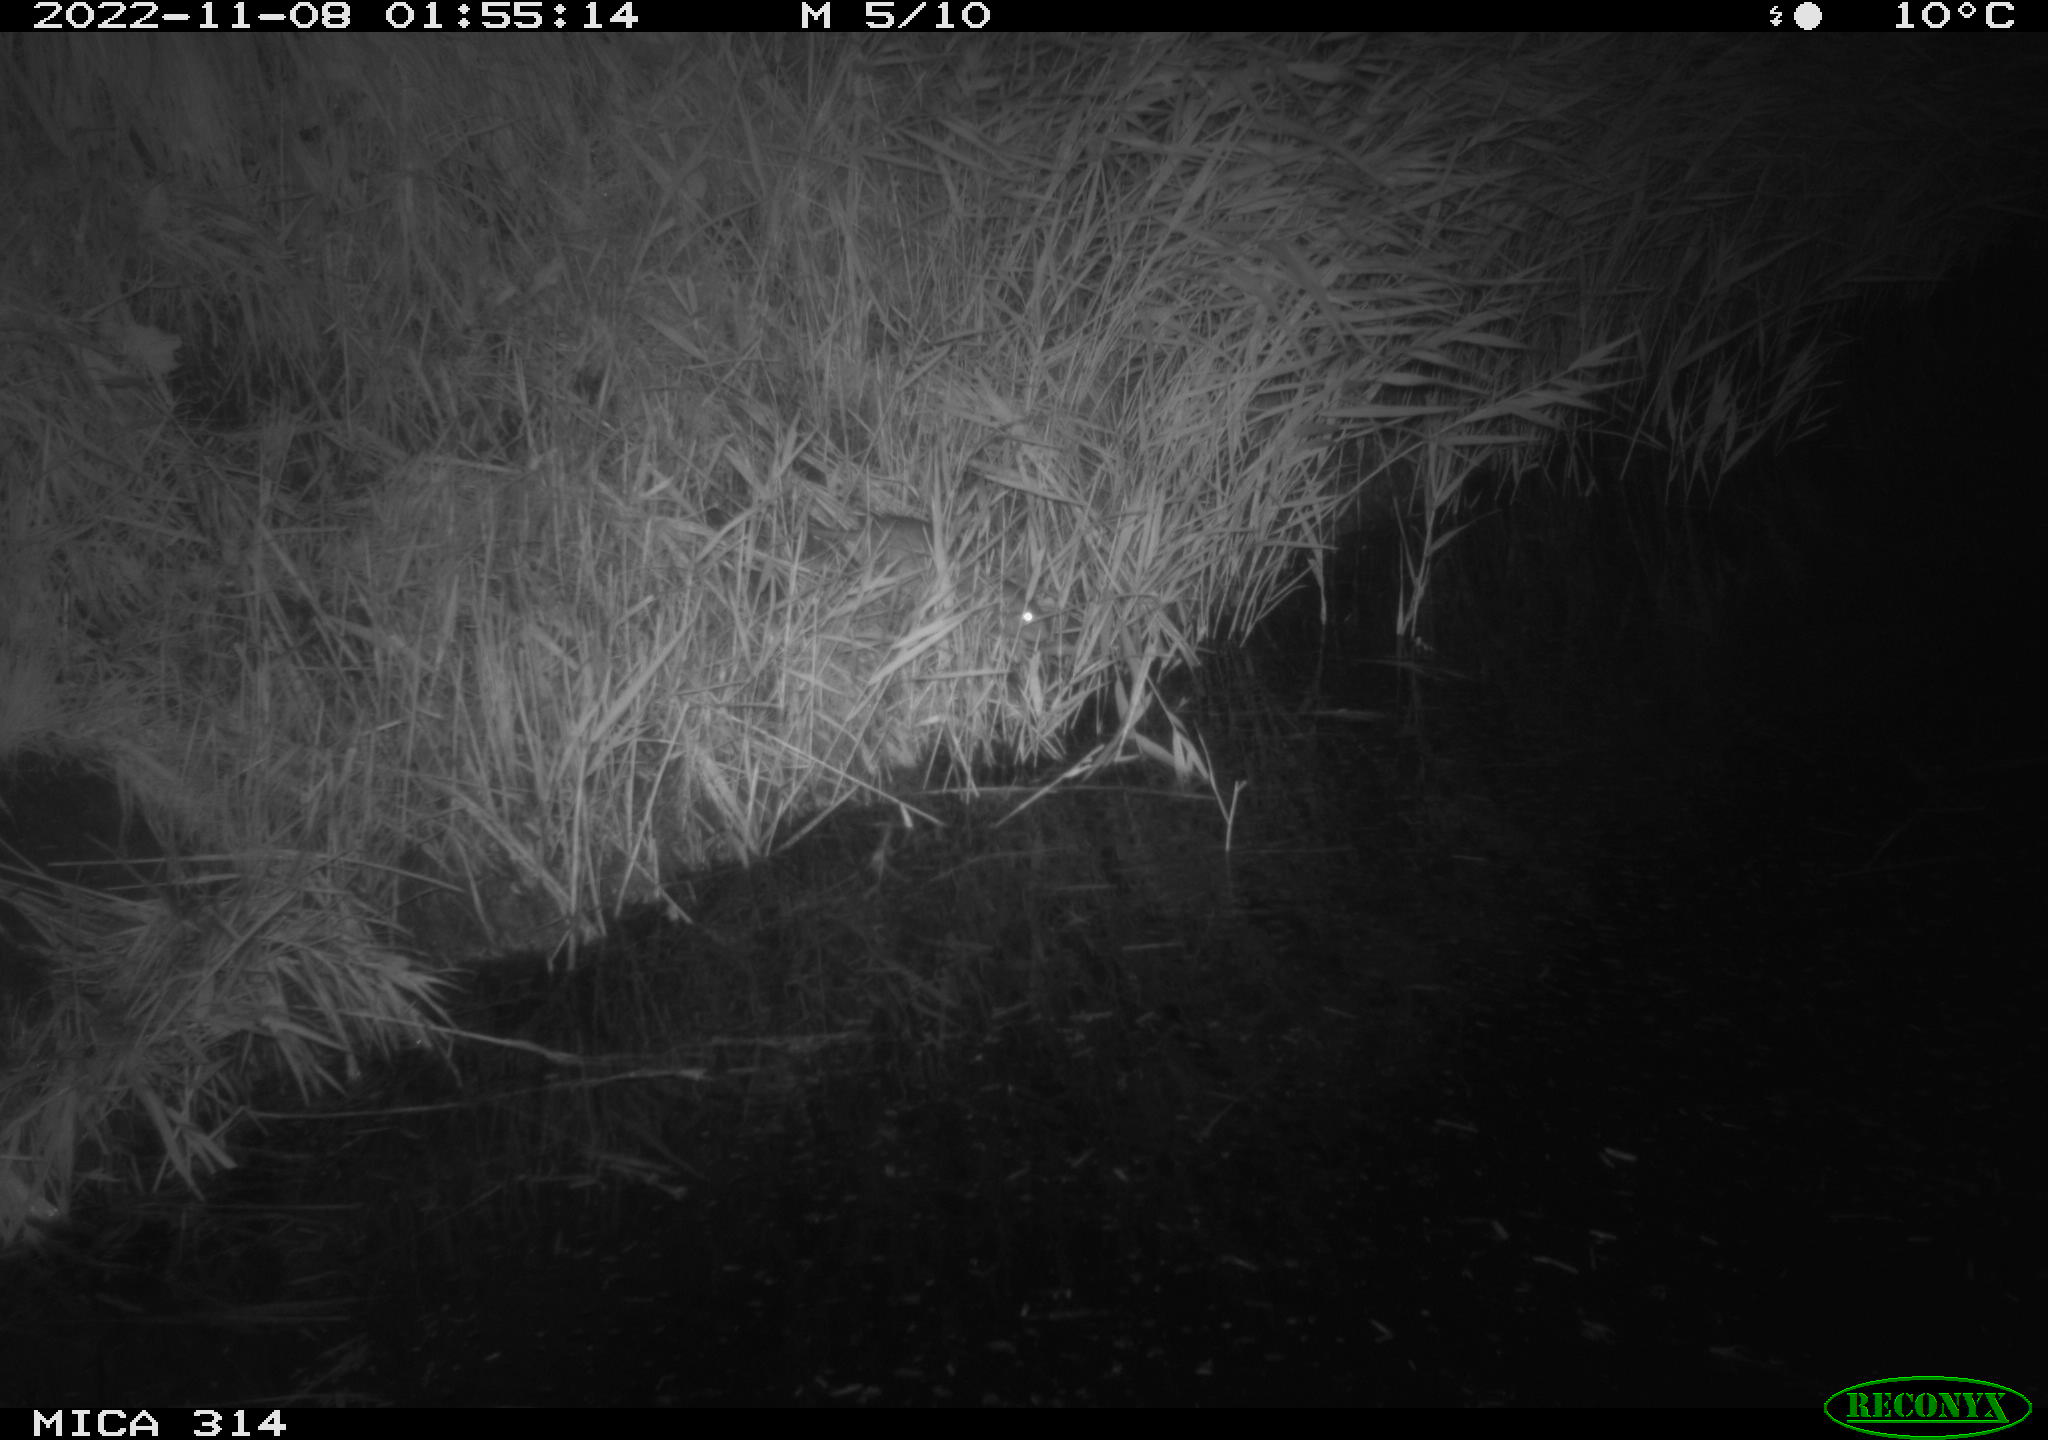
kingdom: Animalia
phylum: Chordata
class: Mammalia
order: Rodentia
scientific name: Rodentia
